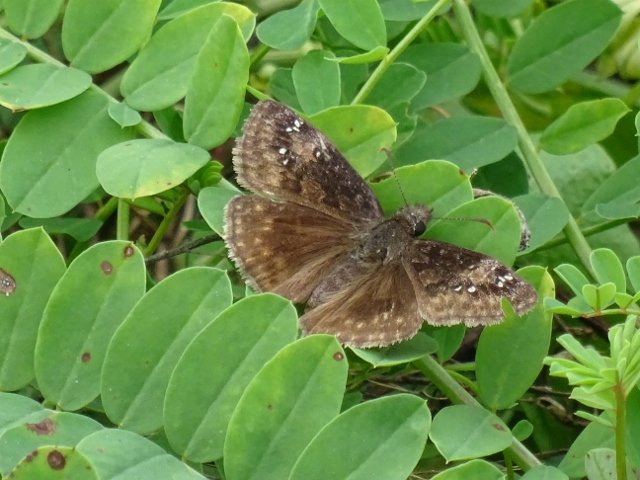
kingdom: Animalia
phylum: Arthropoda
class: Insecta
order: Lepidoptera
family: Hesperiidae
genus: Gesta
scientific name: Gesta
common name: Wild Indigo Duskywing
